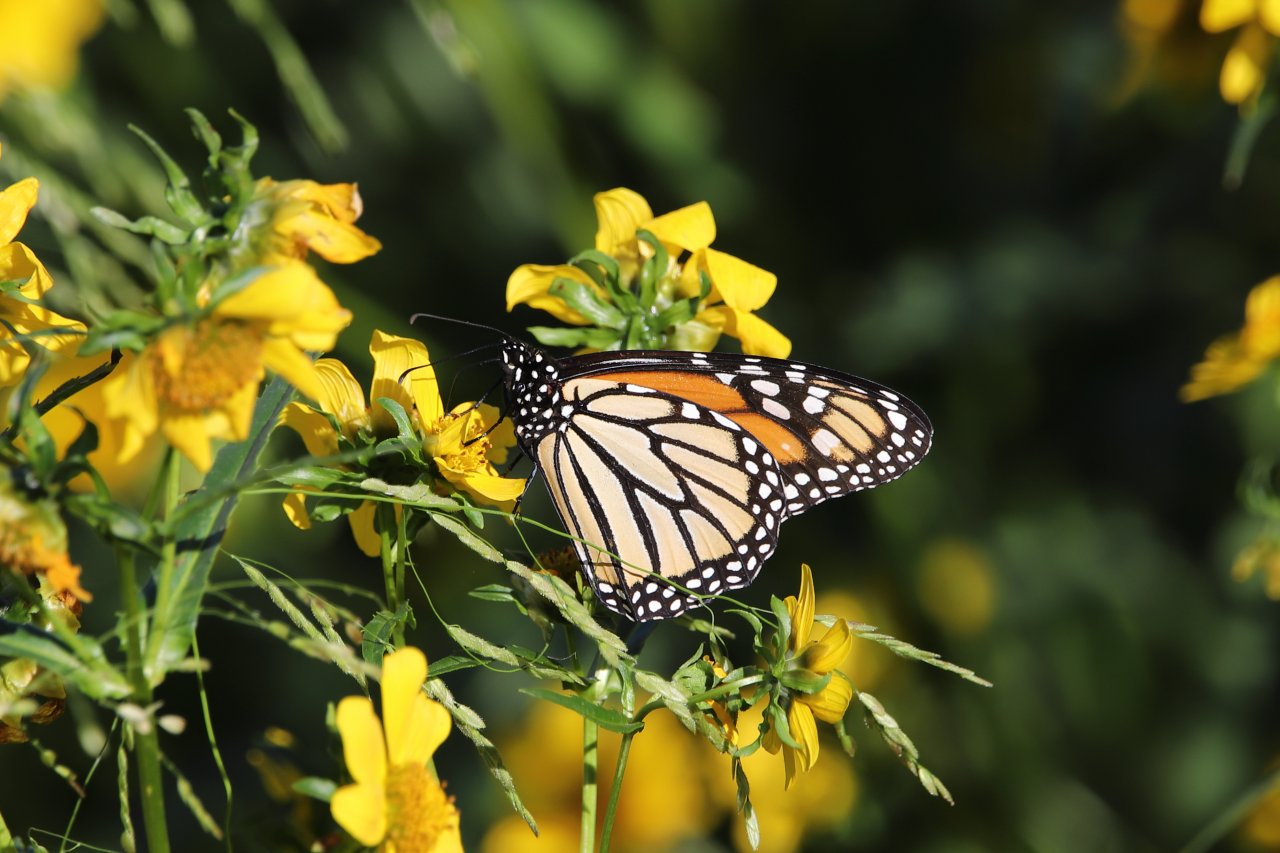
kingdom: Animalia
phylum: Arthropoda
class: Insecta
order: Lepidoptera
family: Nymphalidae
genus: Danaus
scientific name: Danaus plexippus
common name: Monarch
